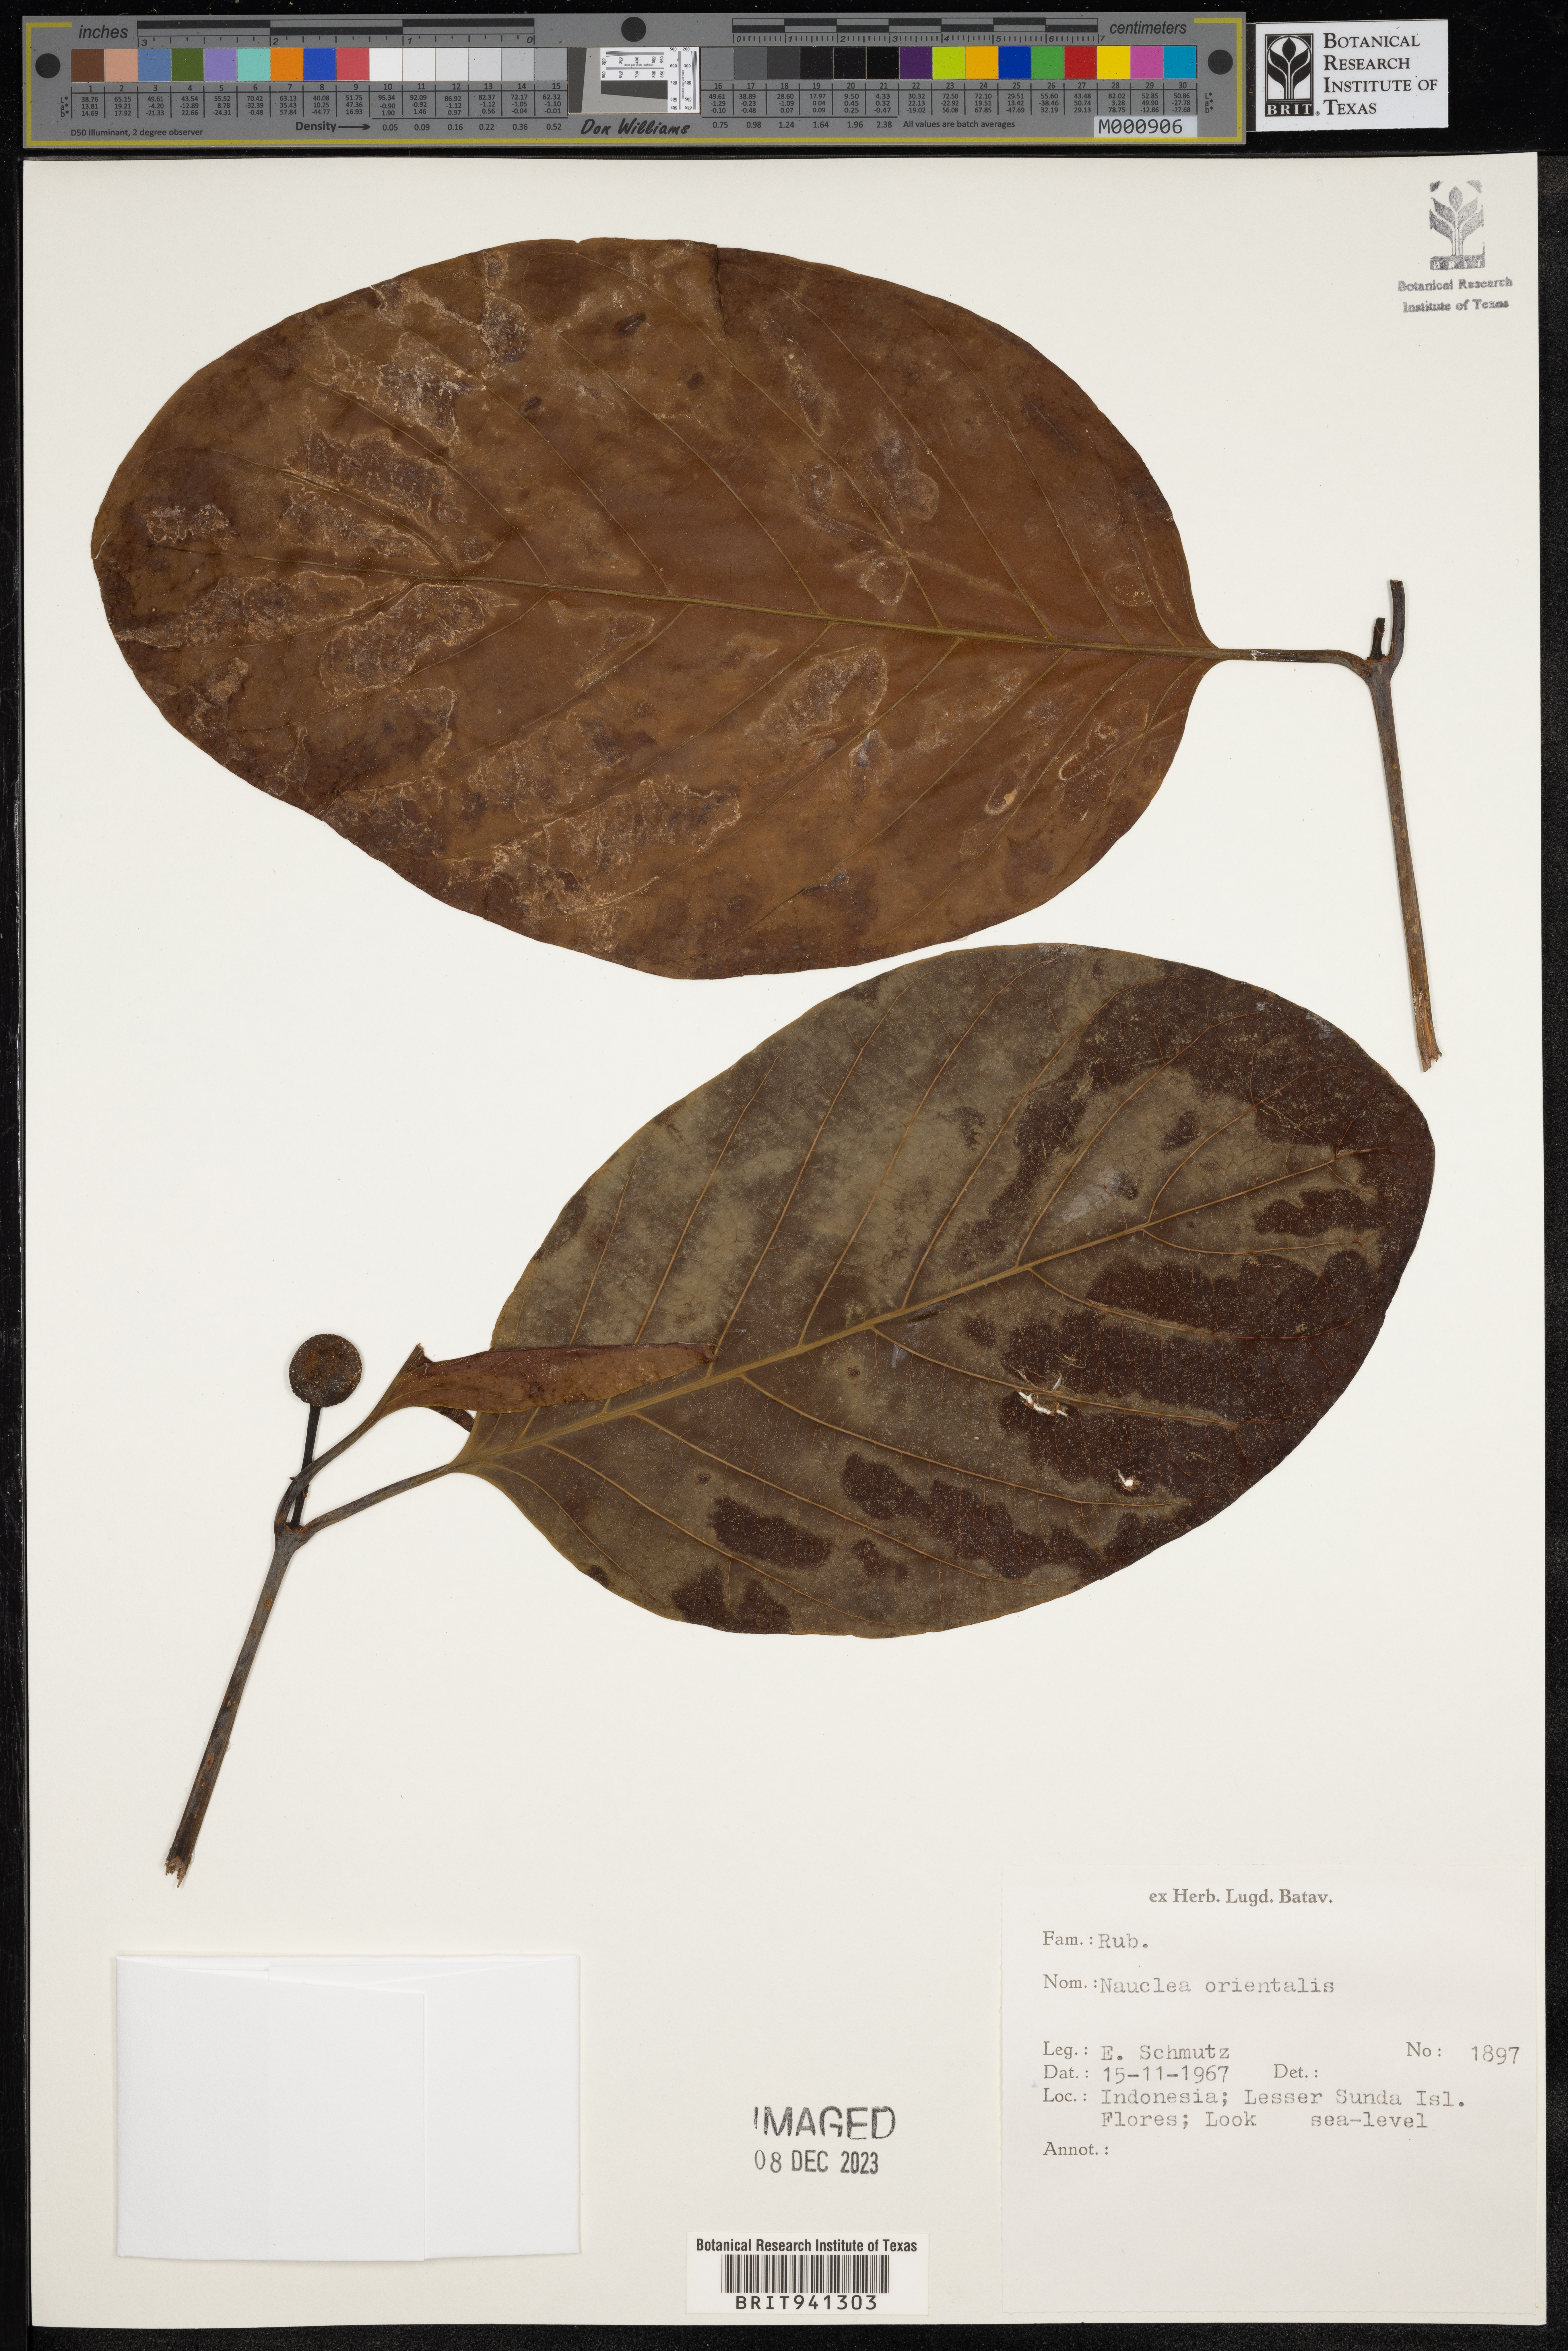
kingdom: Plantae
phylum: Tracheophyta
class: Magnoliopsida
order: Gentianales
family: Rubiaceae
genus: Nauclea
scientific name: Nauclea
